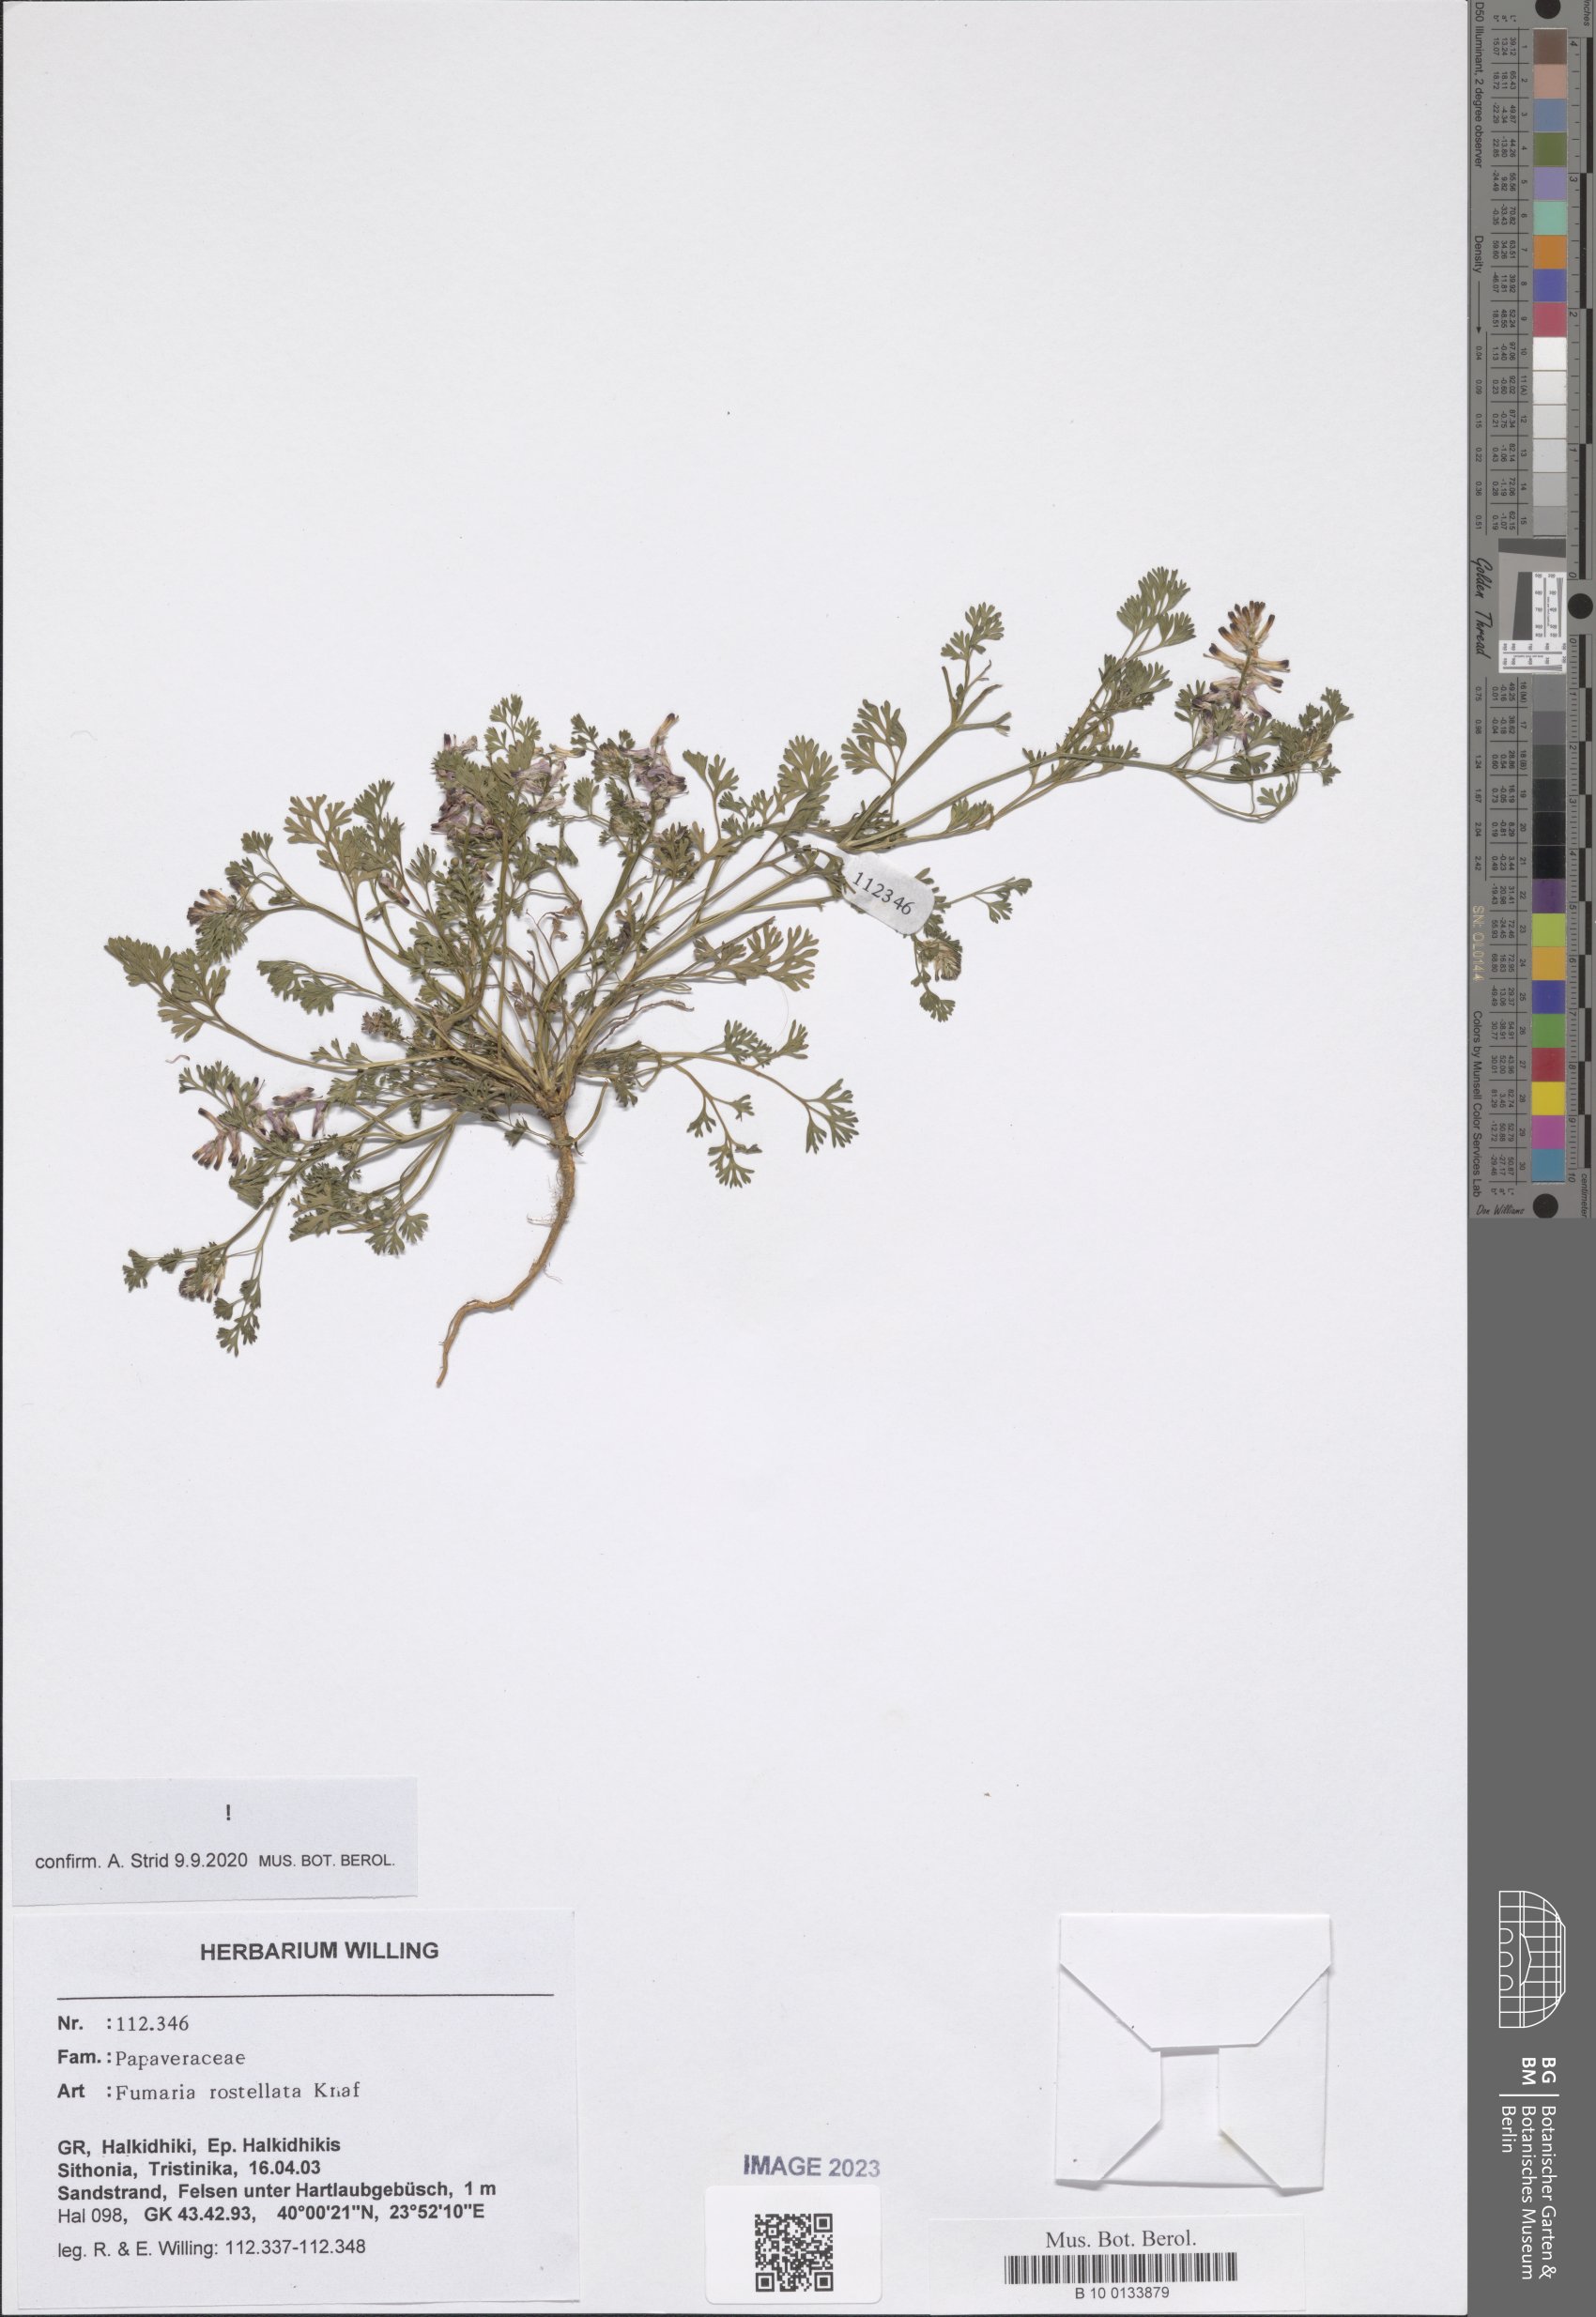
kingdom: Plantae
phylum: Tracheophyta
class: Magnoliopsida
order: Ranunculales
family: Papaveraceae
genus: Fumaria
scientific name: Fumaria rostellata
